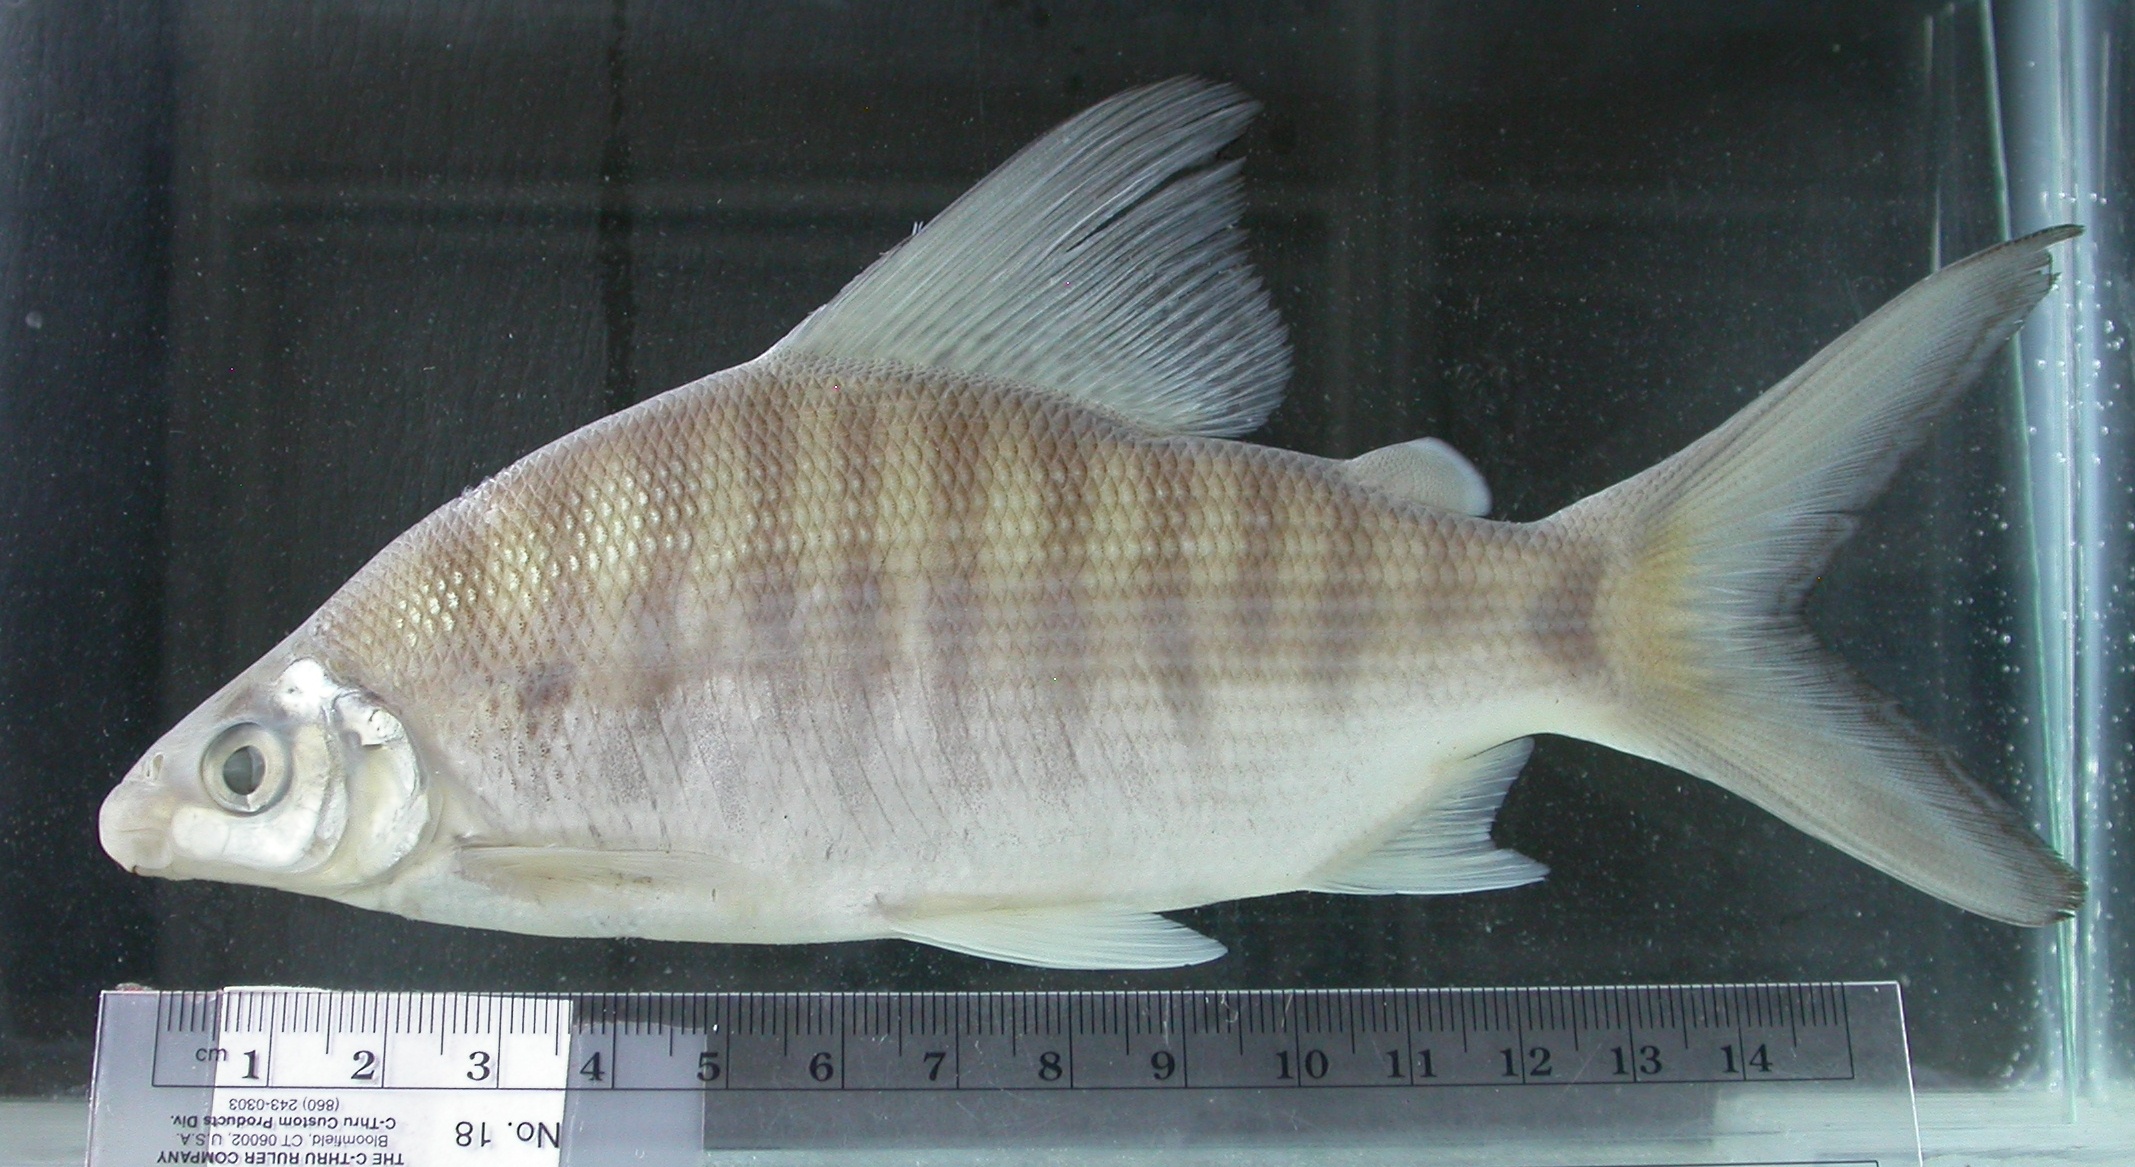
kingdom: Animalia
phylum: Chordata
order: Characiformes
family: Distichodontidae
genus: Distichodus
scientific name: Distichodus schenga
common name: Chessa
